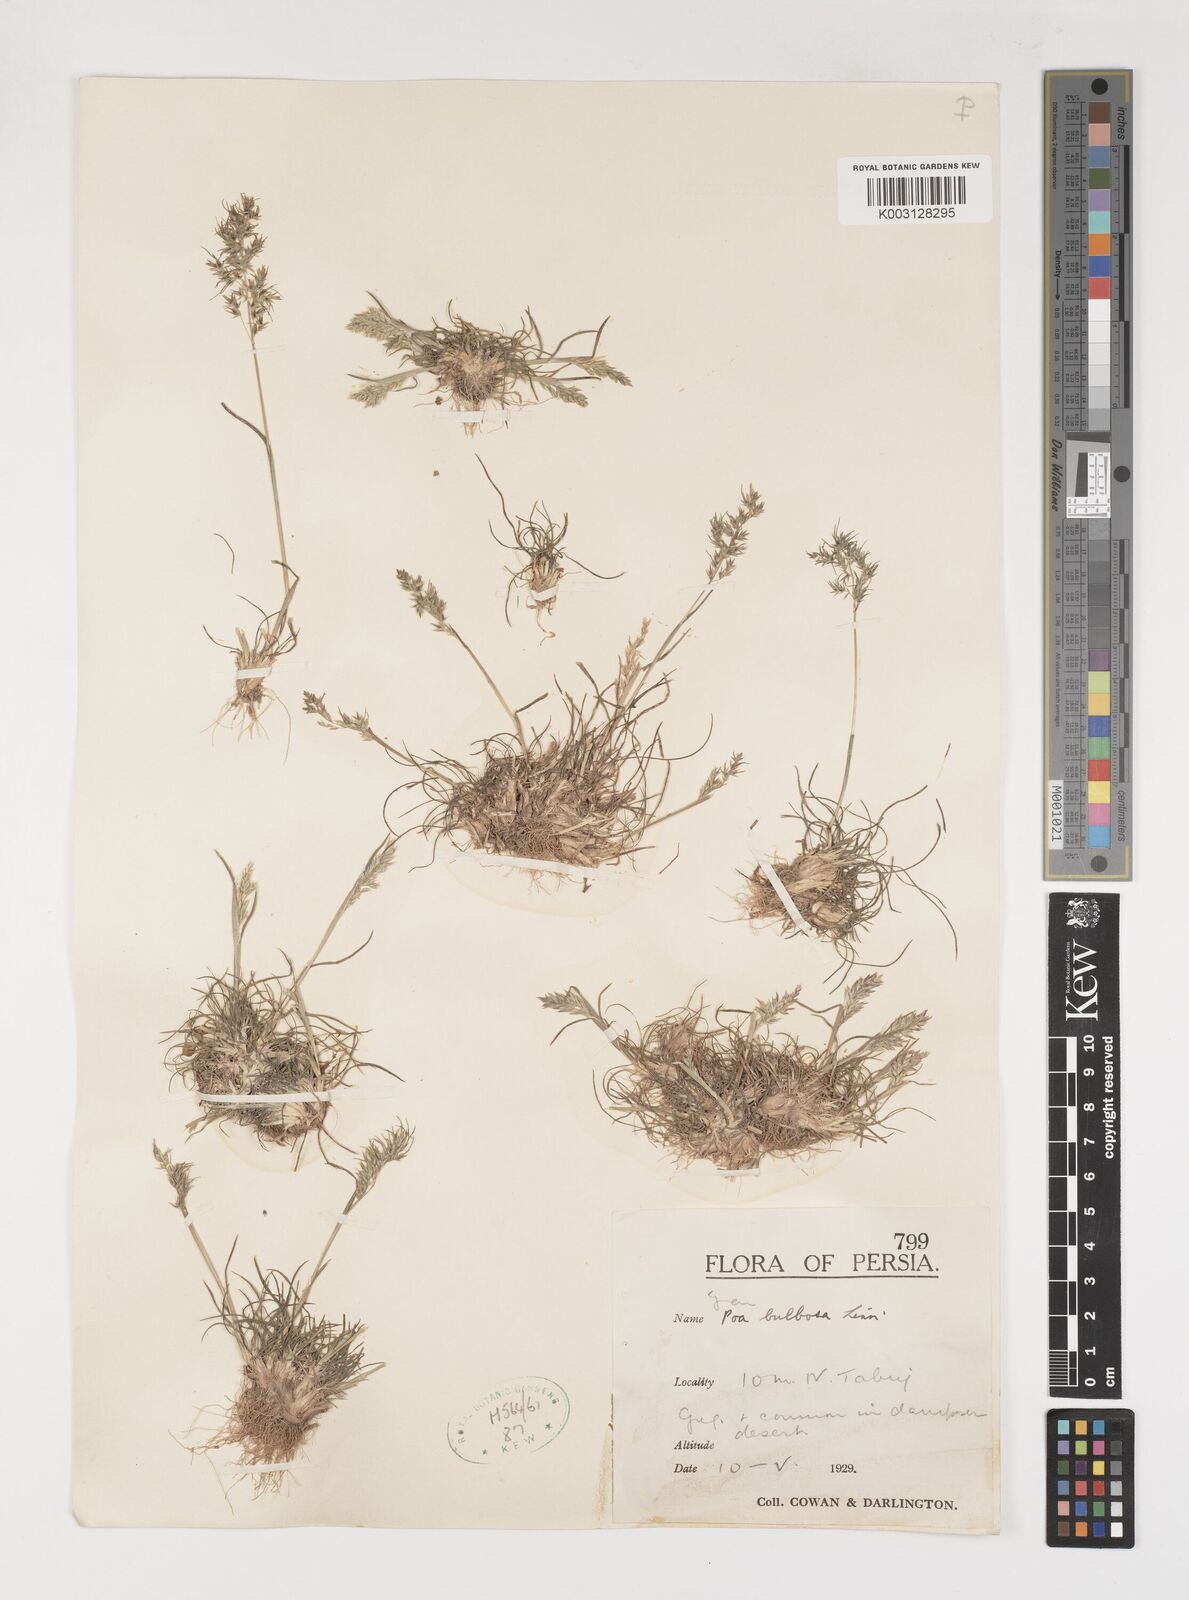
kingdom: Plantae
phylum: Tracheophyta
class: Liliopsida
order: Poales
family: Poaceae
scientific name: Poaceae
